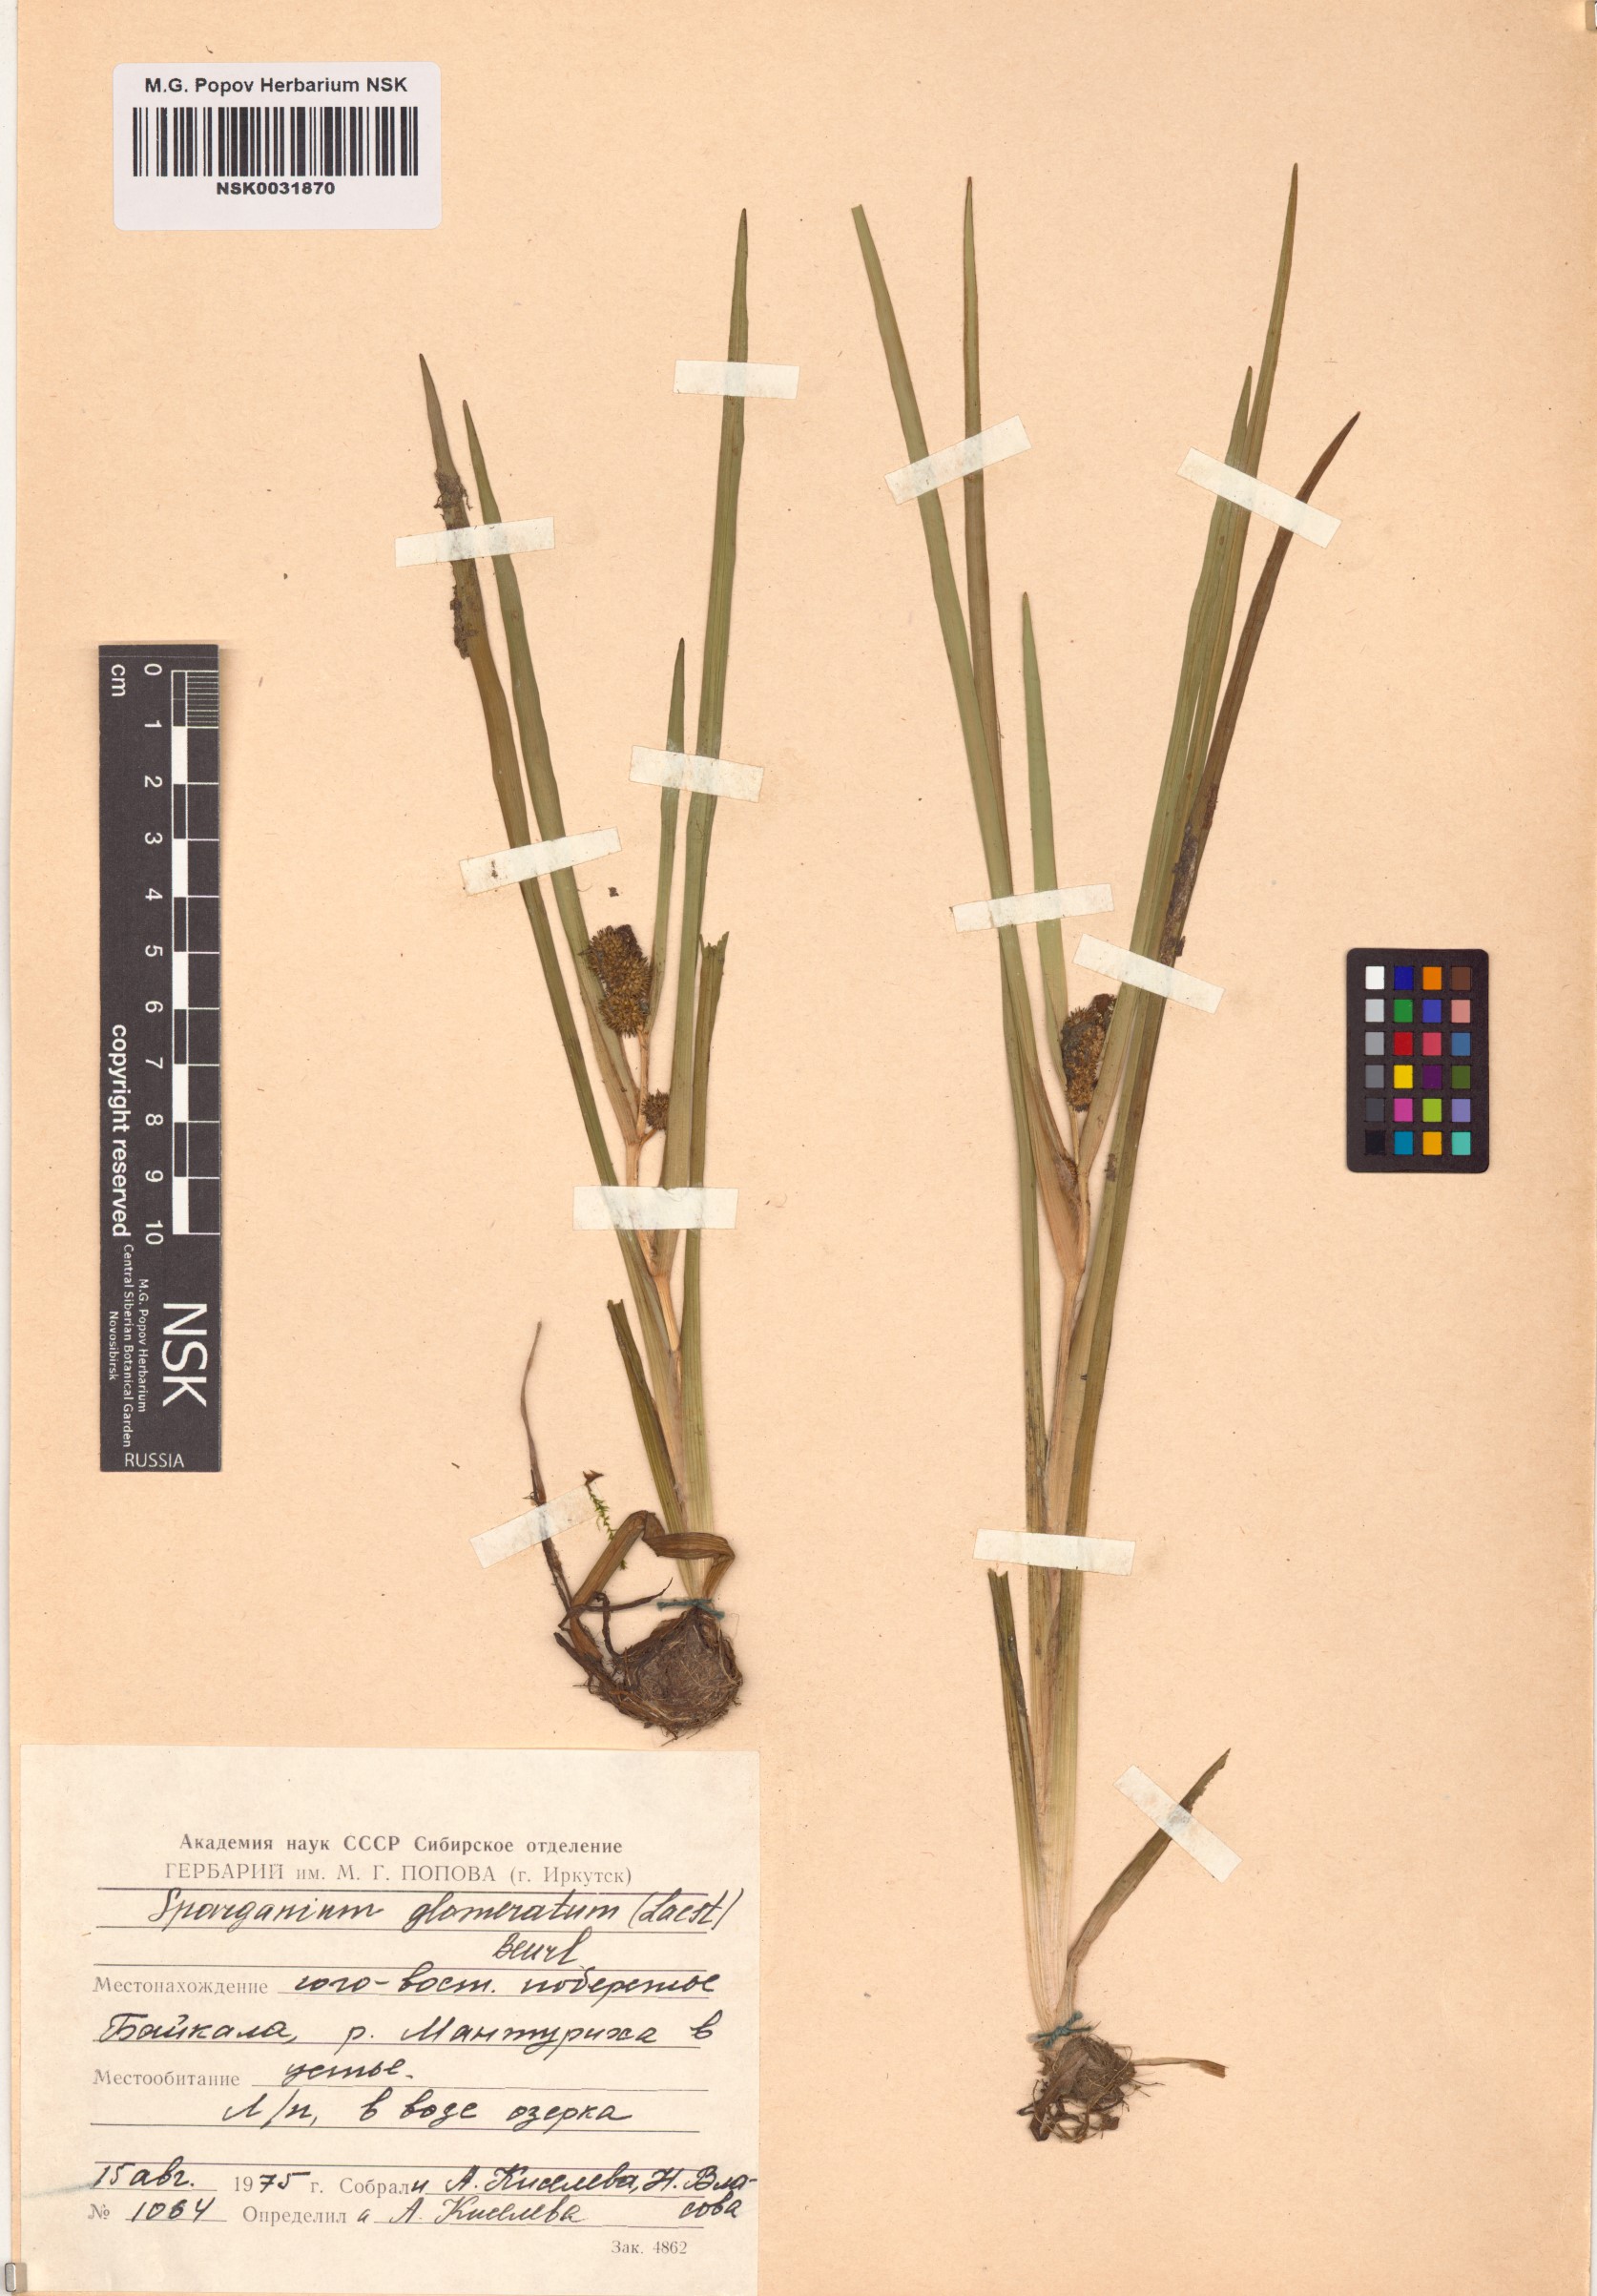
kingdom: Plantae
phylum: Tracheophyta
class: Liliopsida
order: Poales
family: Typhaceae
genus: Sparganium
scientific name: Sparganium glomeratum
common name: Clustered burreed
